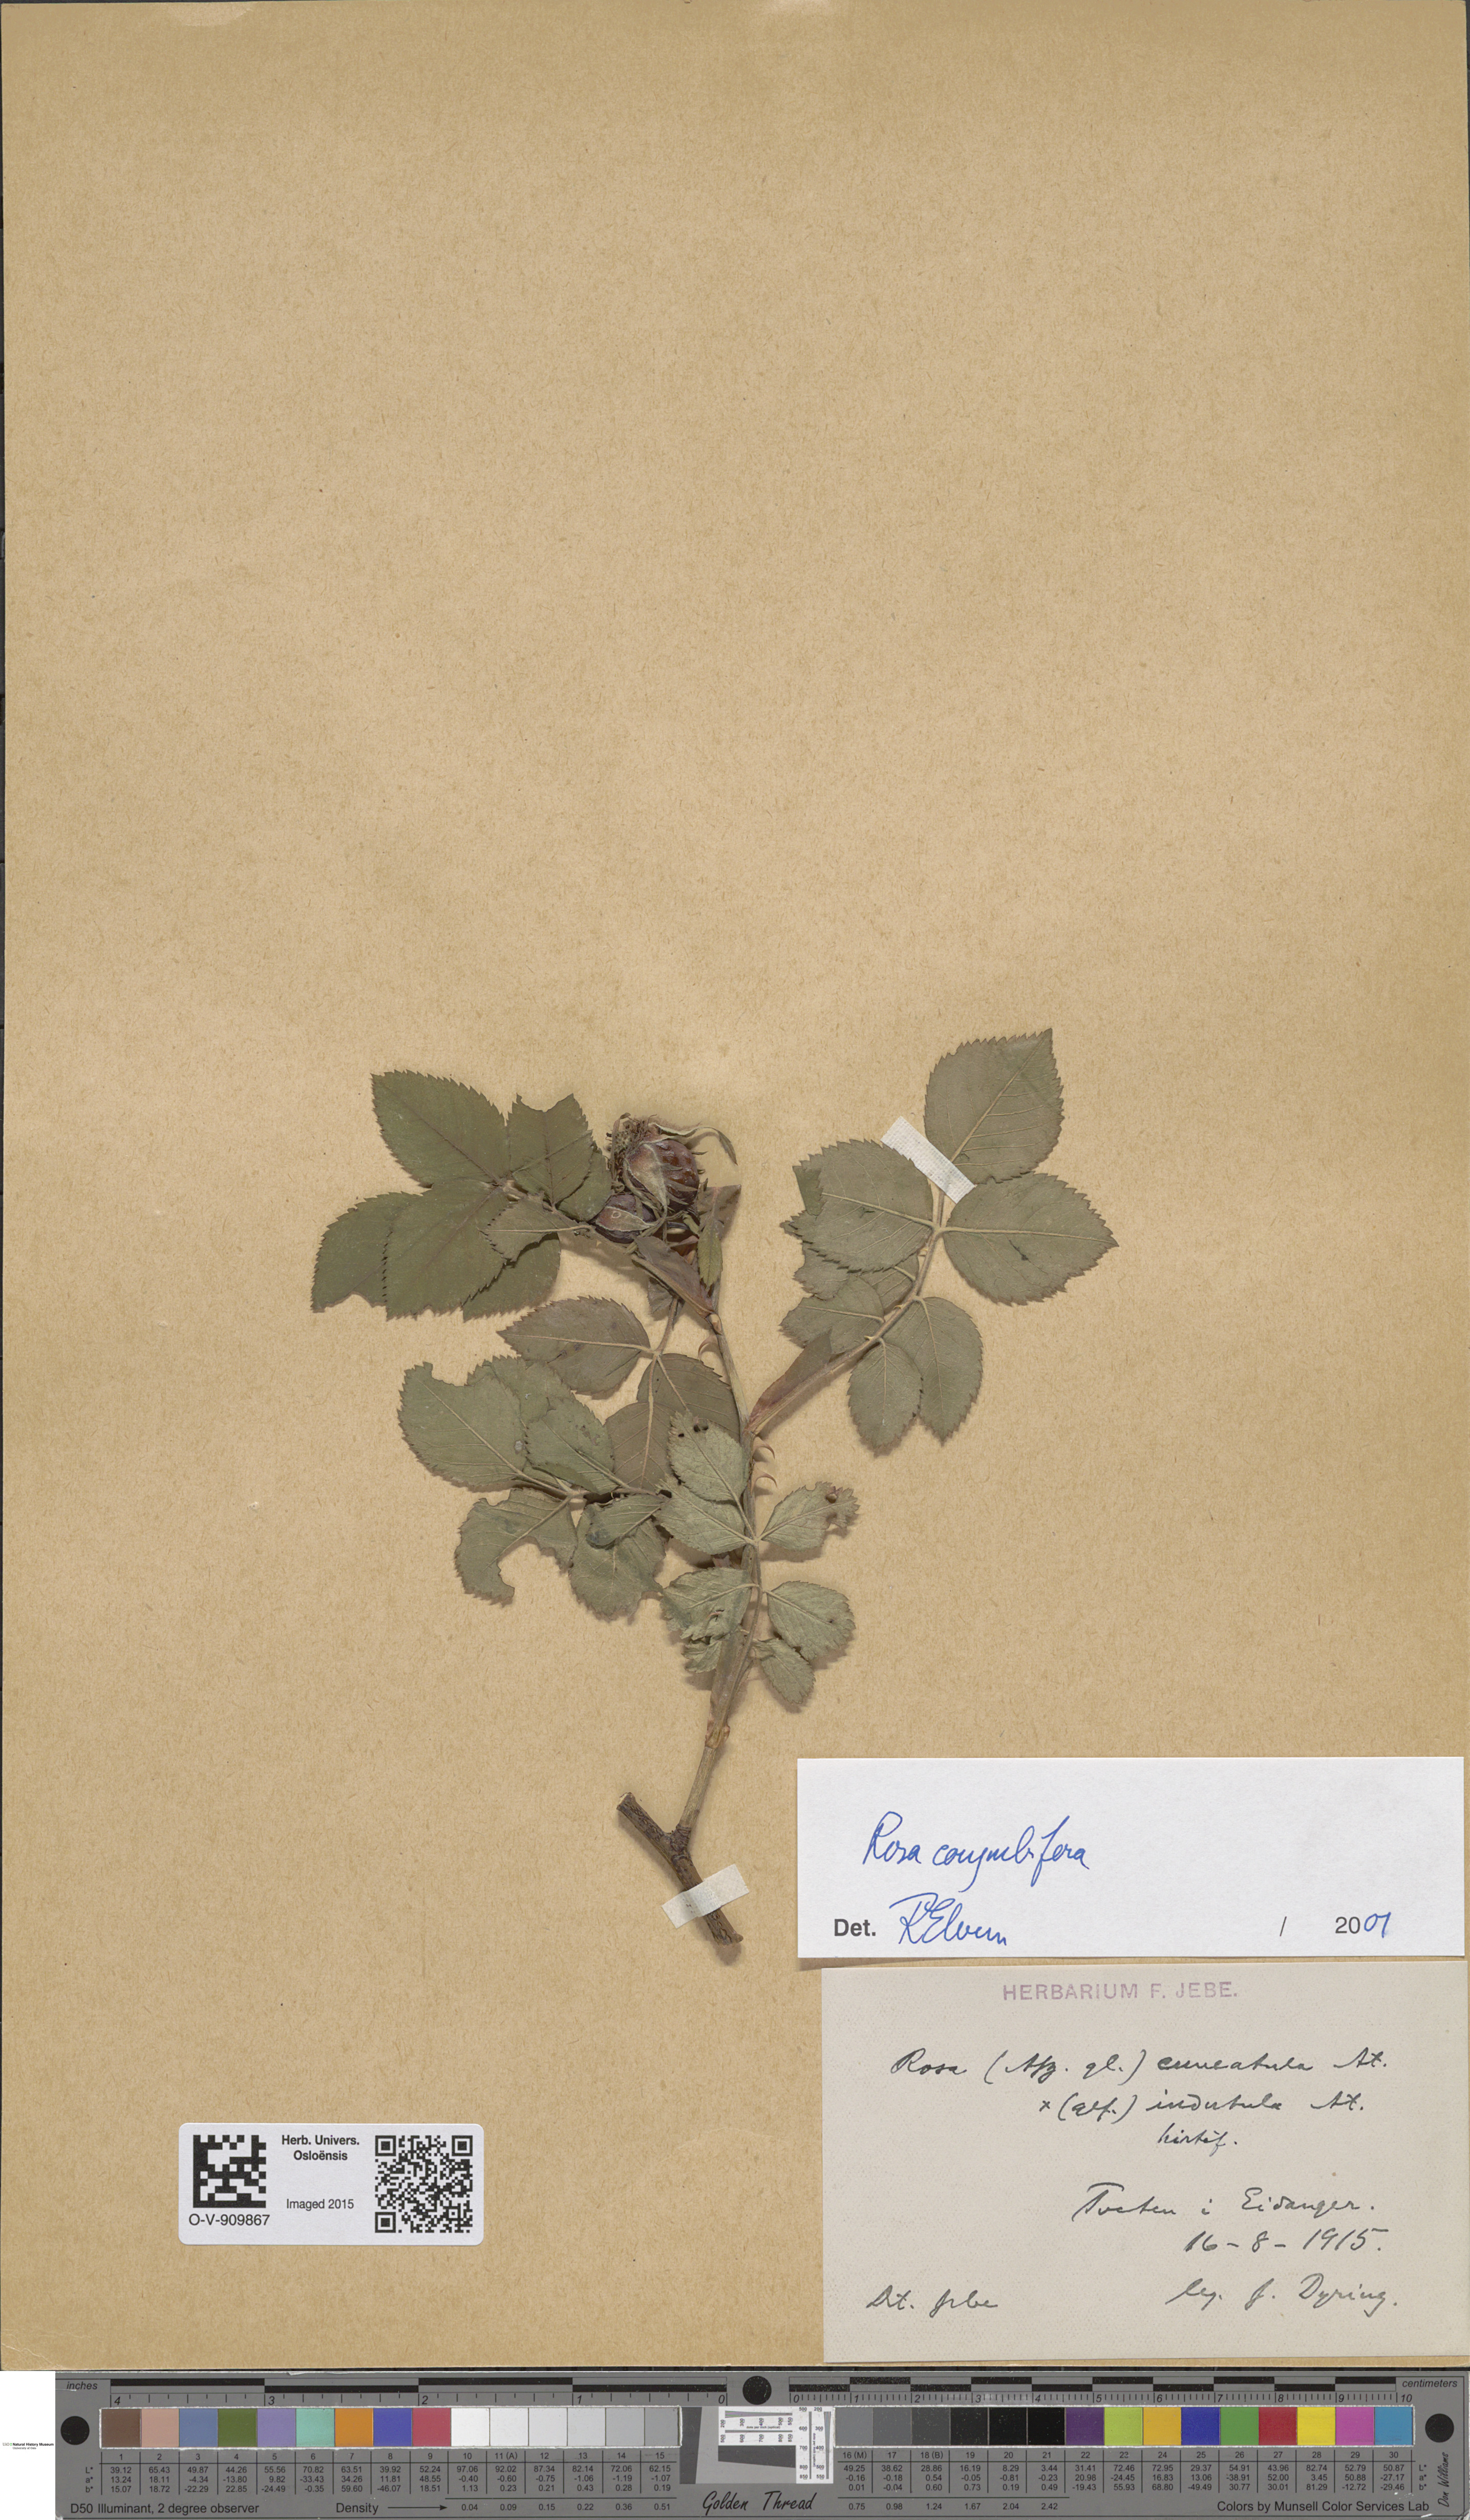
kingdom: Plantae
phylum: Tracheophyta
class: Magnoliopsida
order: Rosales
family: Rosaceae
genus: Rosa
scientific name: Rosa corymbifera
